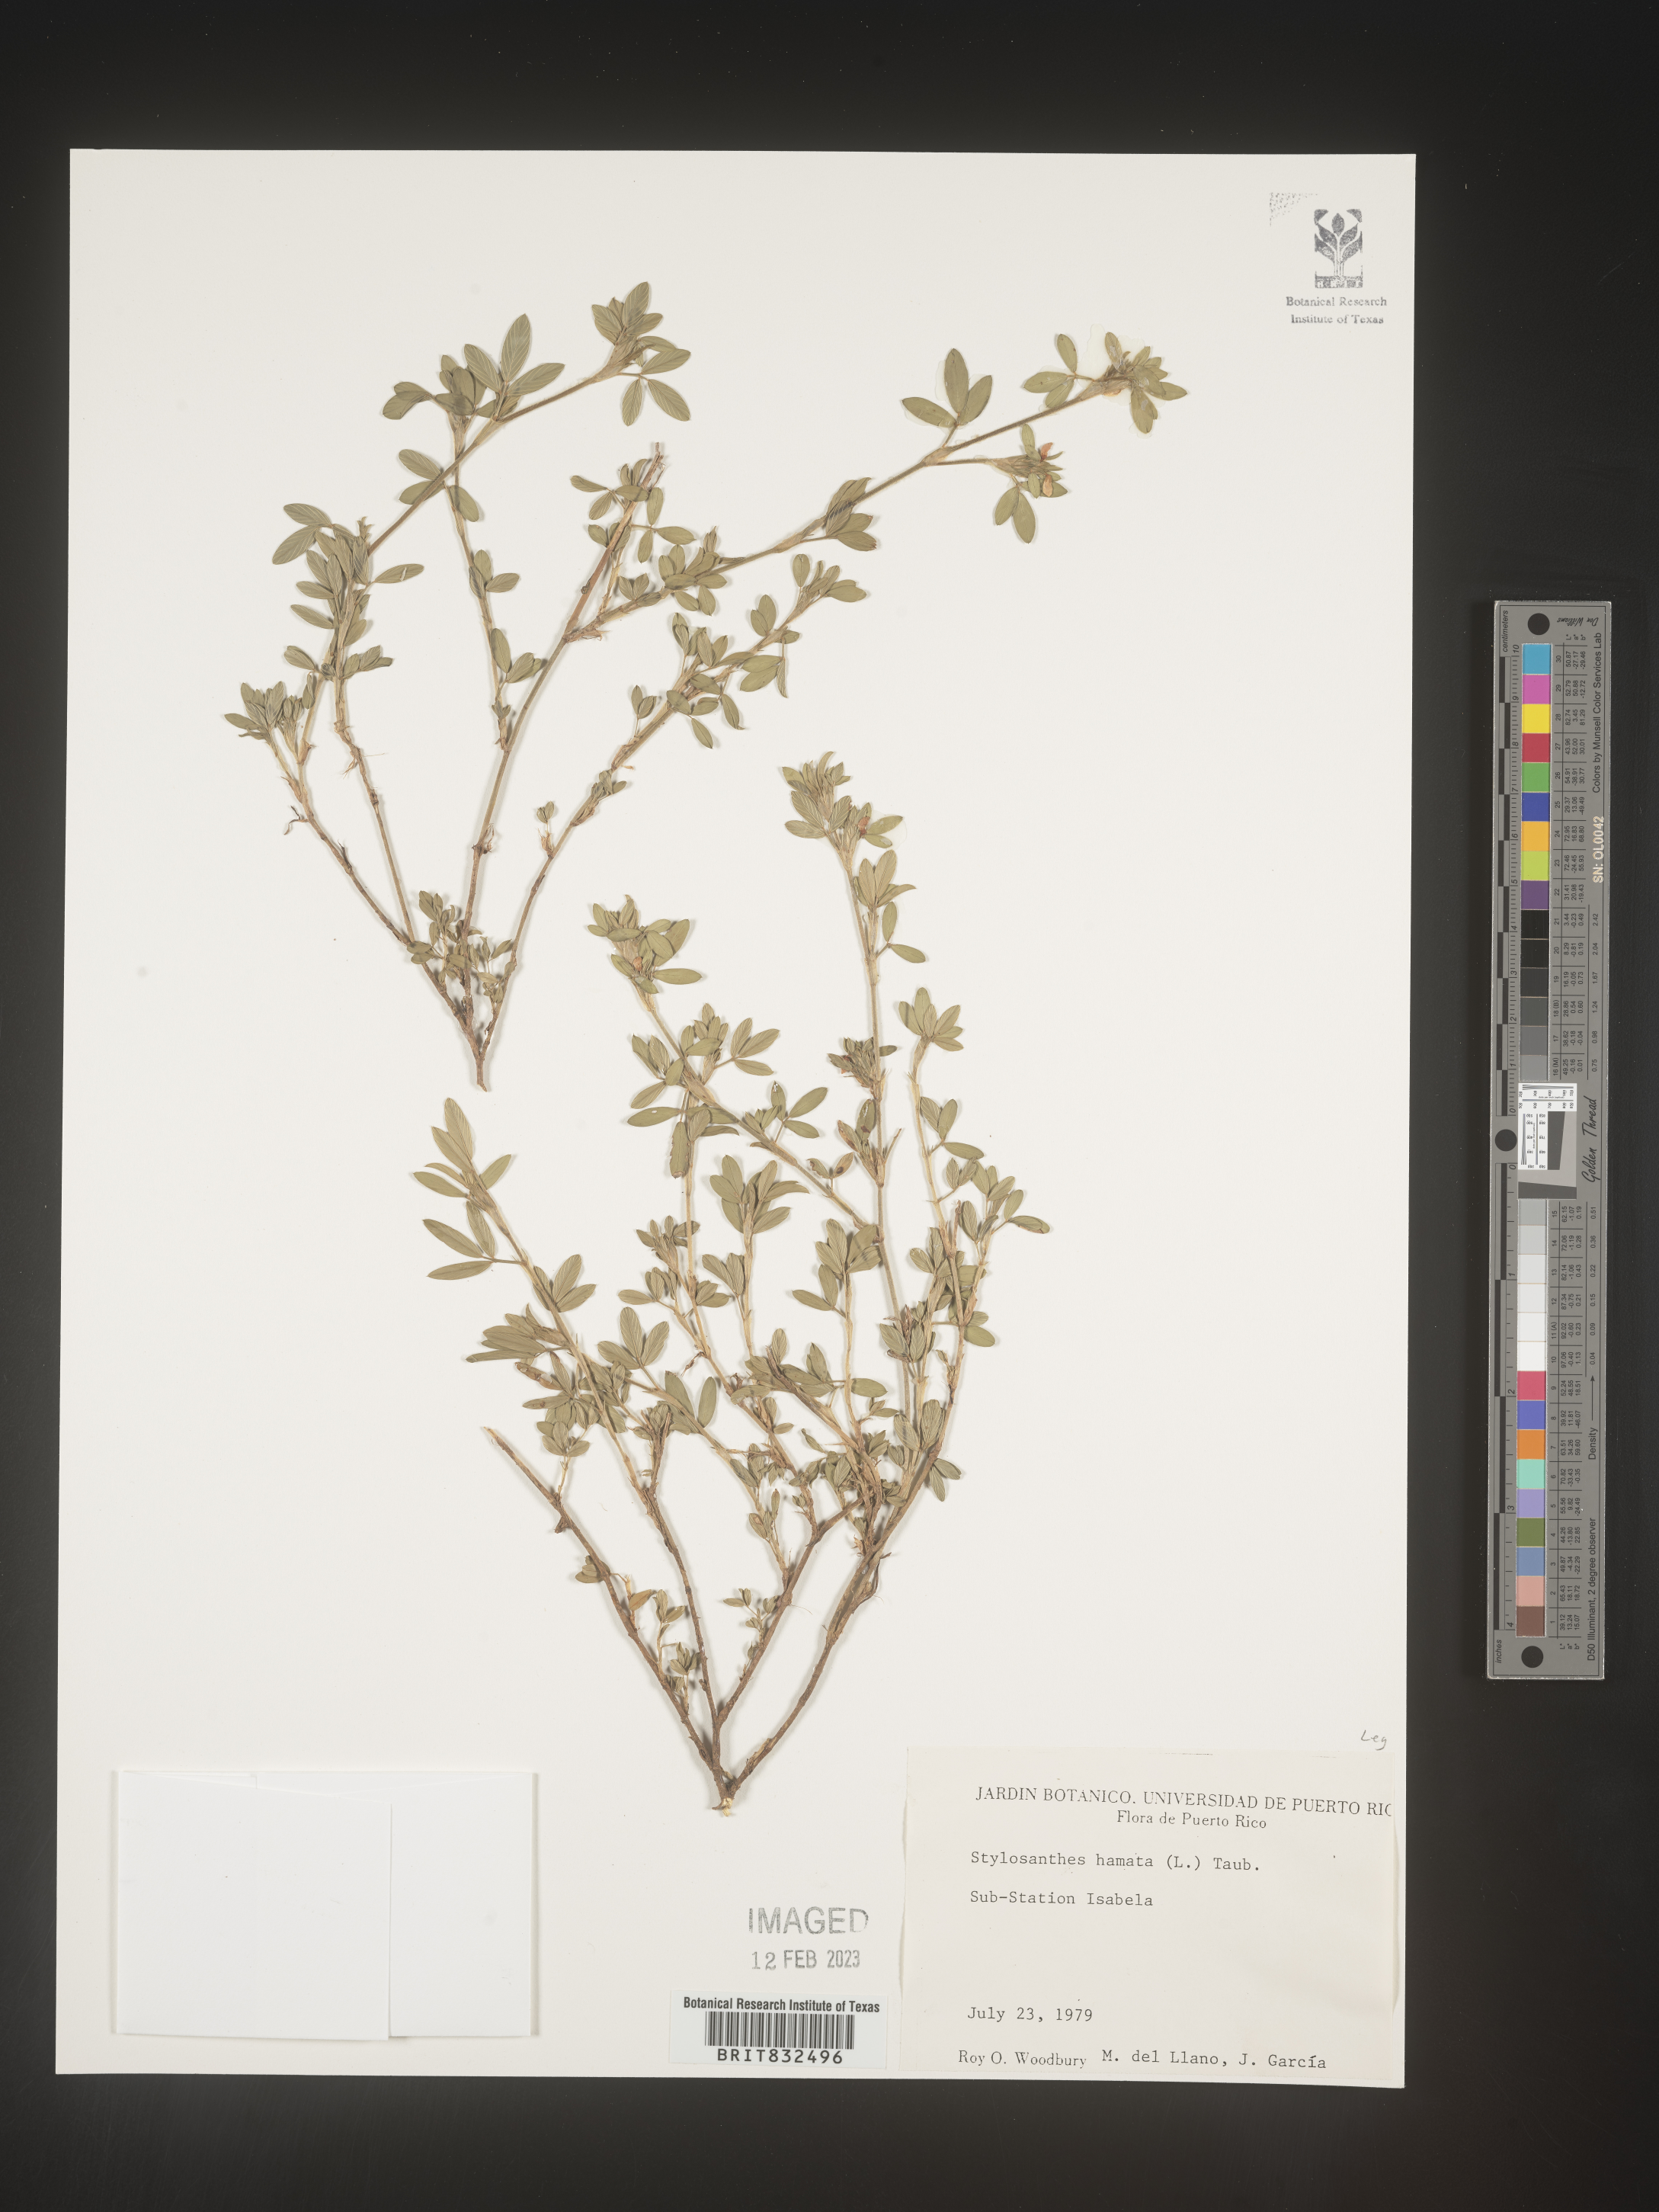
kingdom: Plantae
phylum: Tracheophyta
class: Magnoliopsida
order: Fabales
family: Fabaceae
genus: Stylosanthes
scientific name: Stylosanthes
